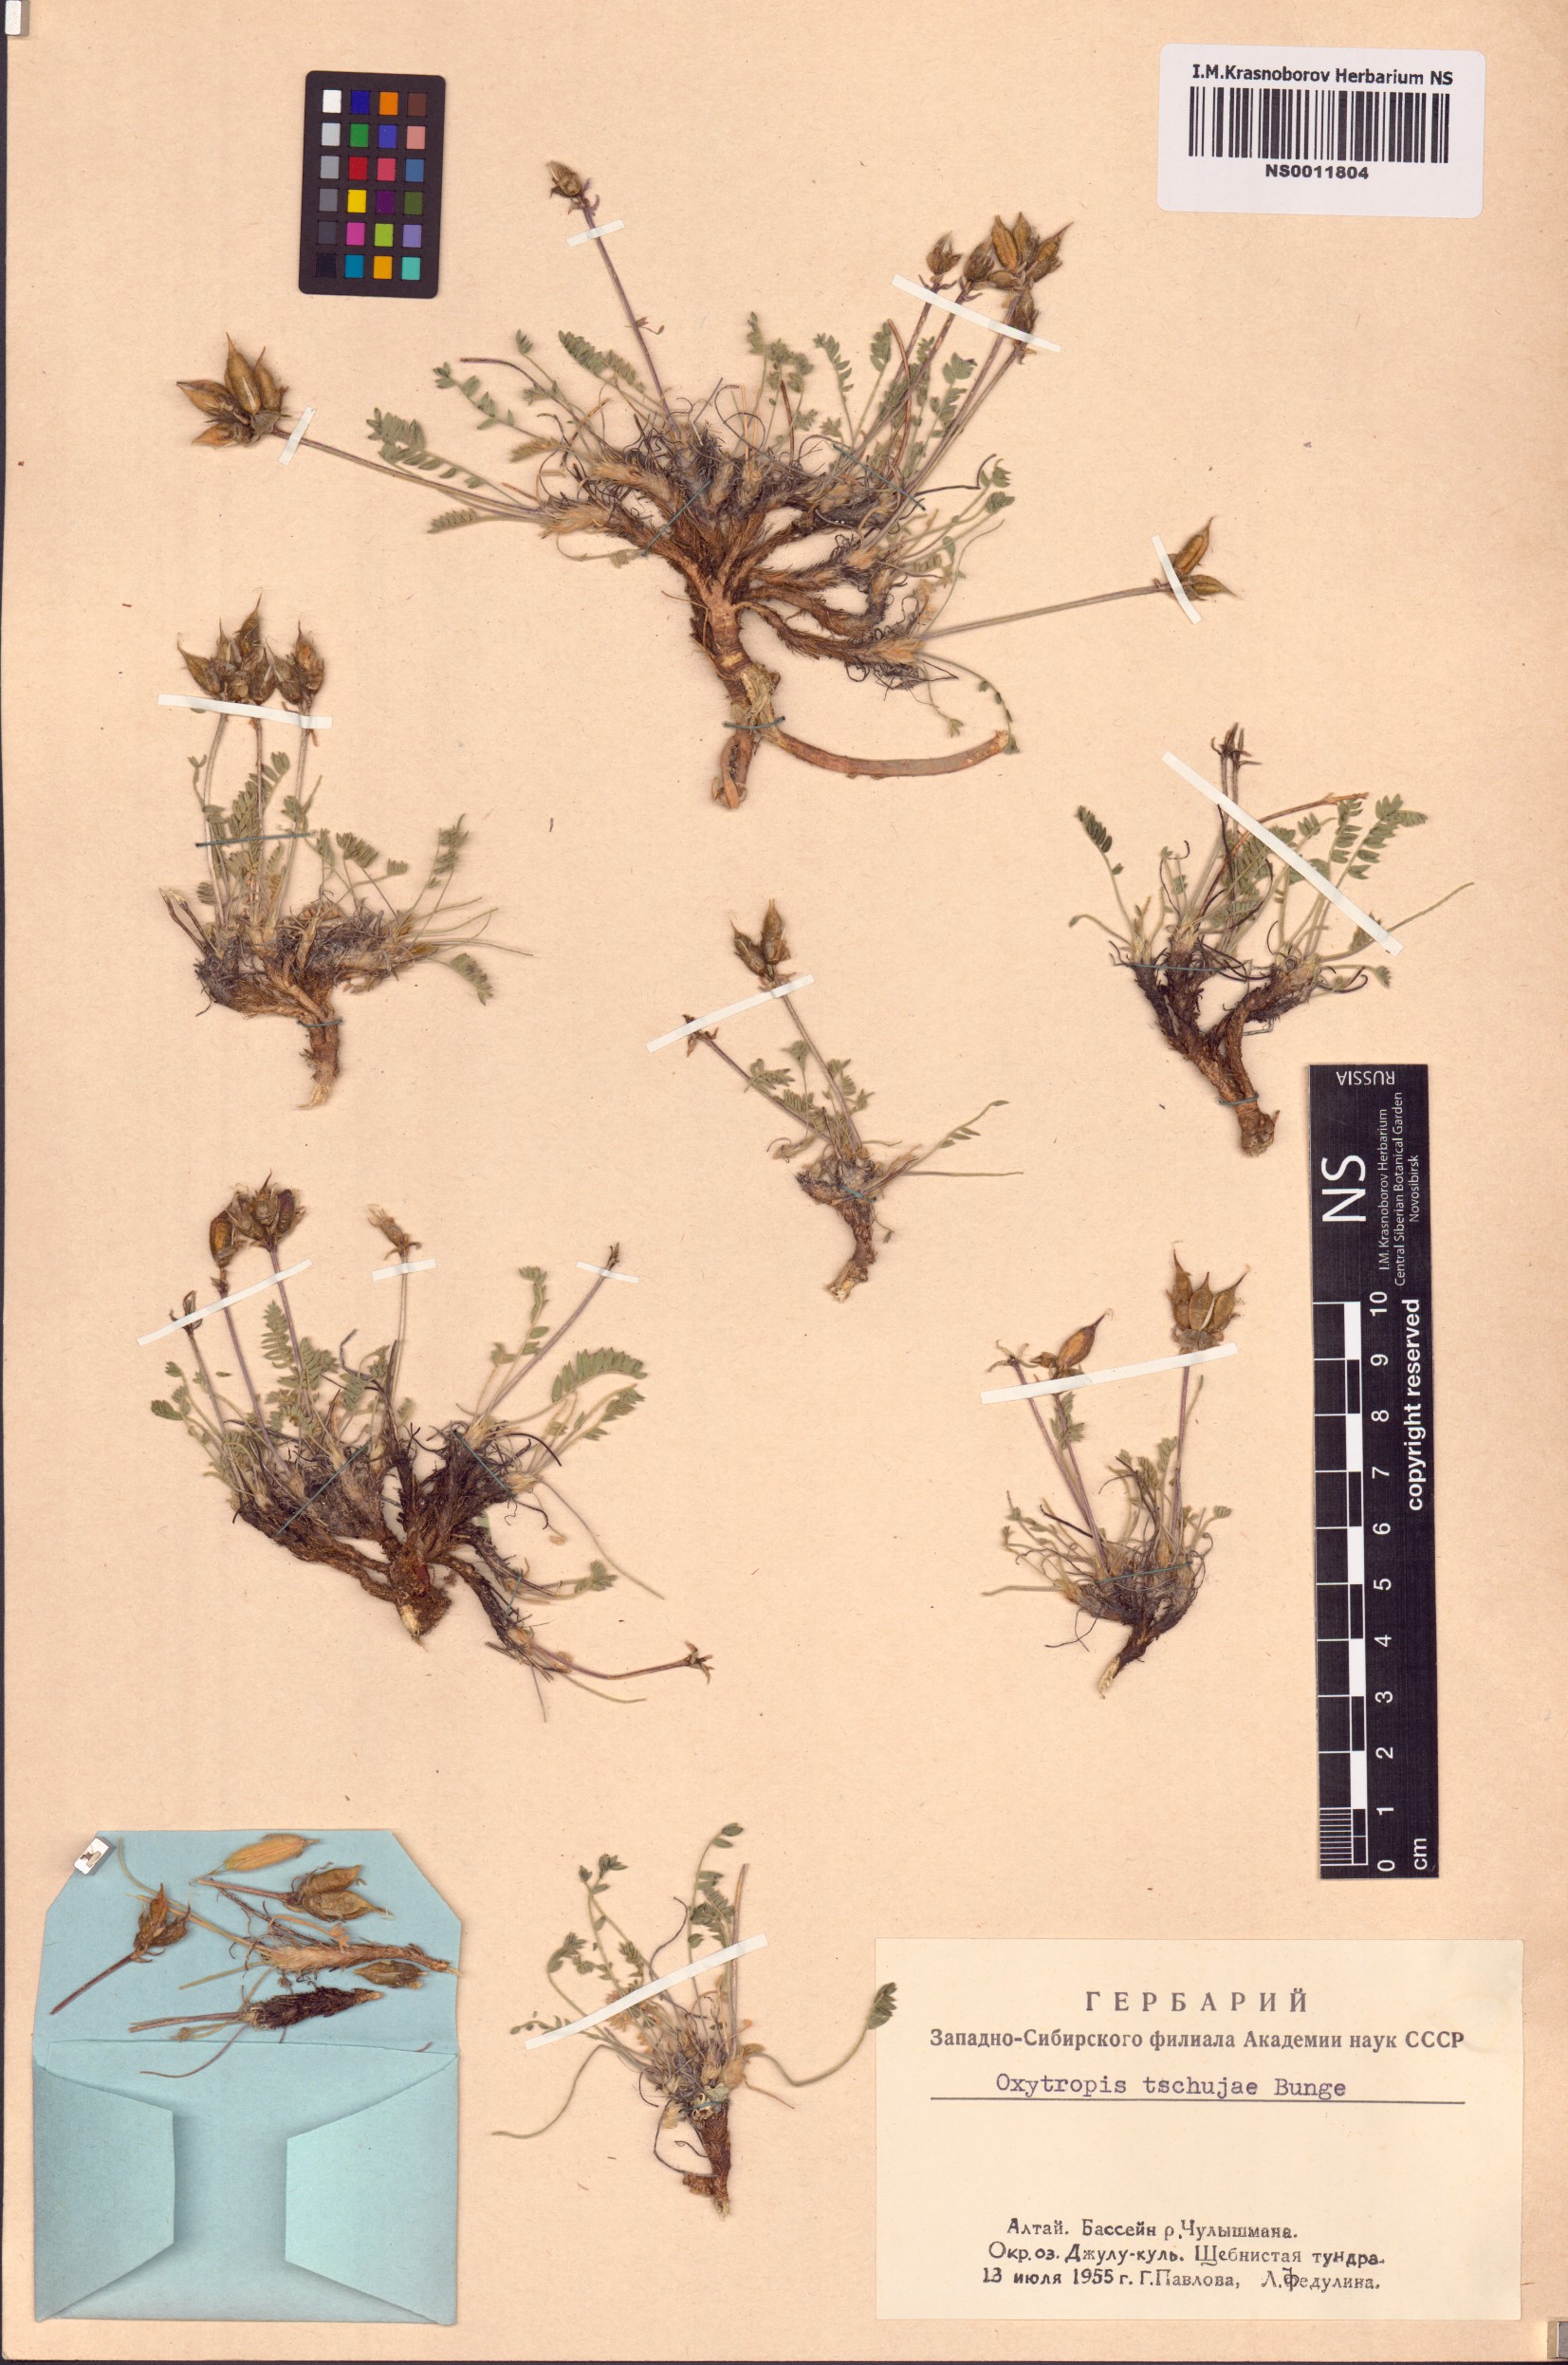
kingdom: Plantae
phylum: Tracheophyta
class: Magnoliopsida
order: Fabales
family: Fabaceae
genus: Oxytropis
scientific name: Oxytropis tschujae
